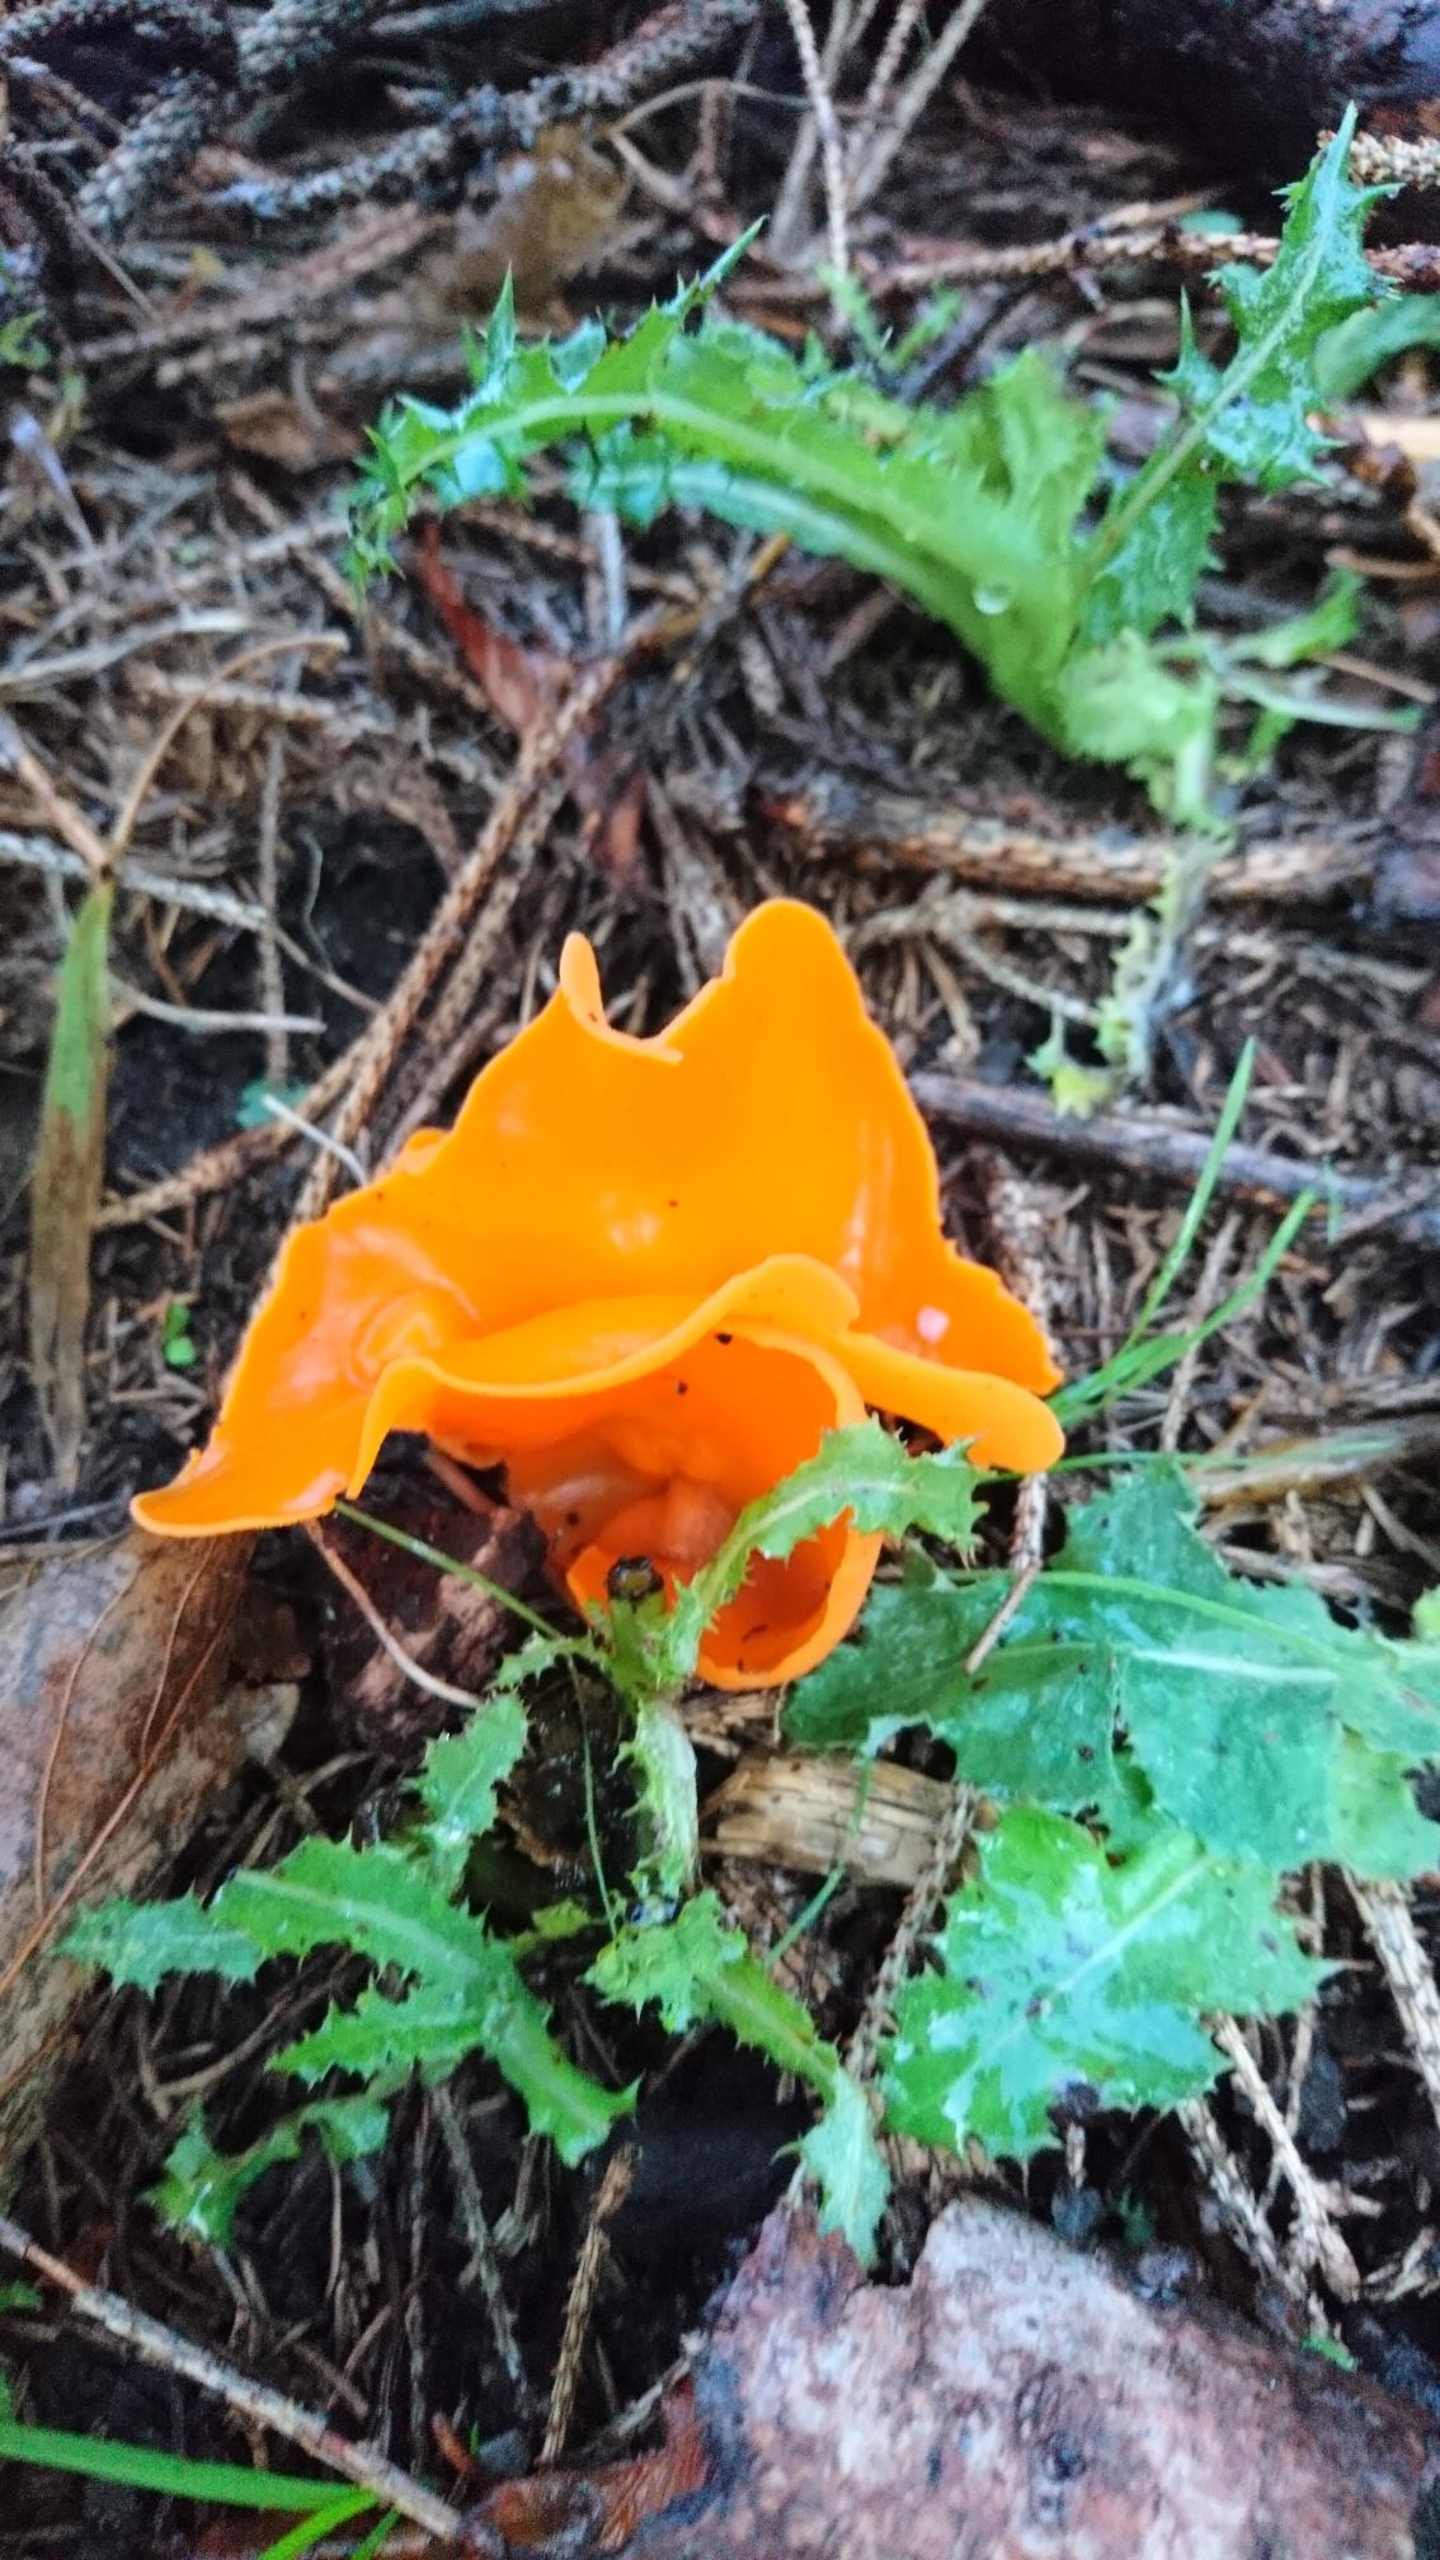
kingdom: Fungi
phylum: Ascomycota
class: Pezizomycetes
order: Pezizales
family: Pyronemataceae
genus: Aleuria
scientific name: Aleuria aurantia
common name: Almindelig orangebæger
